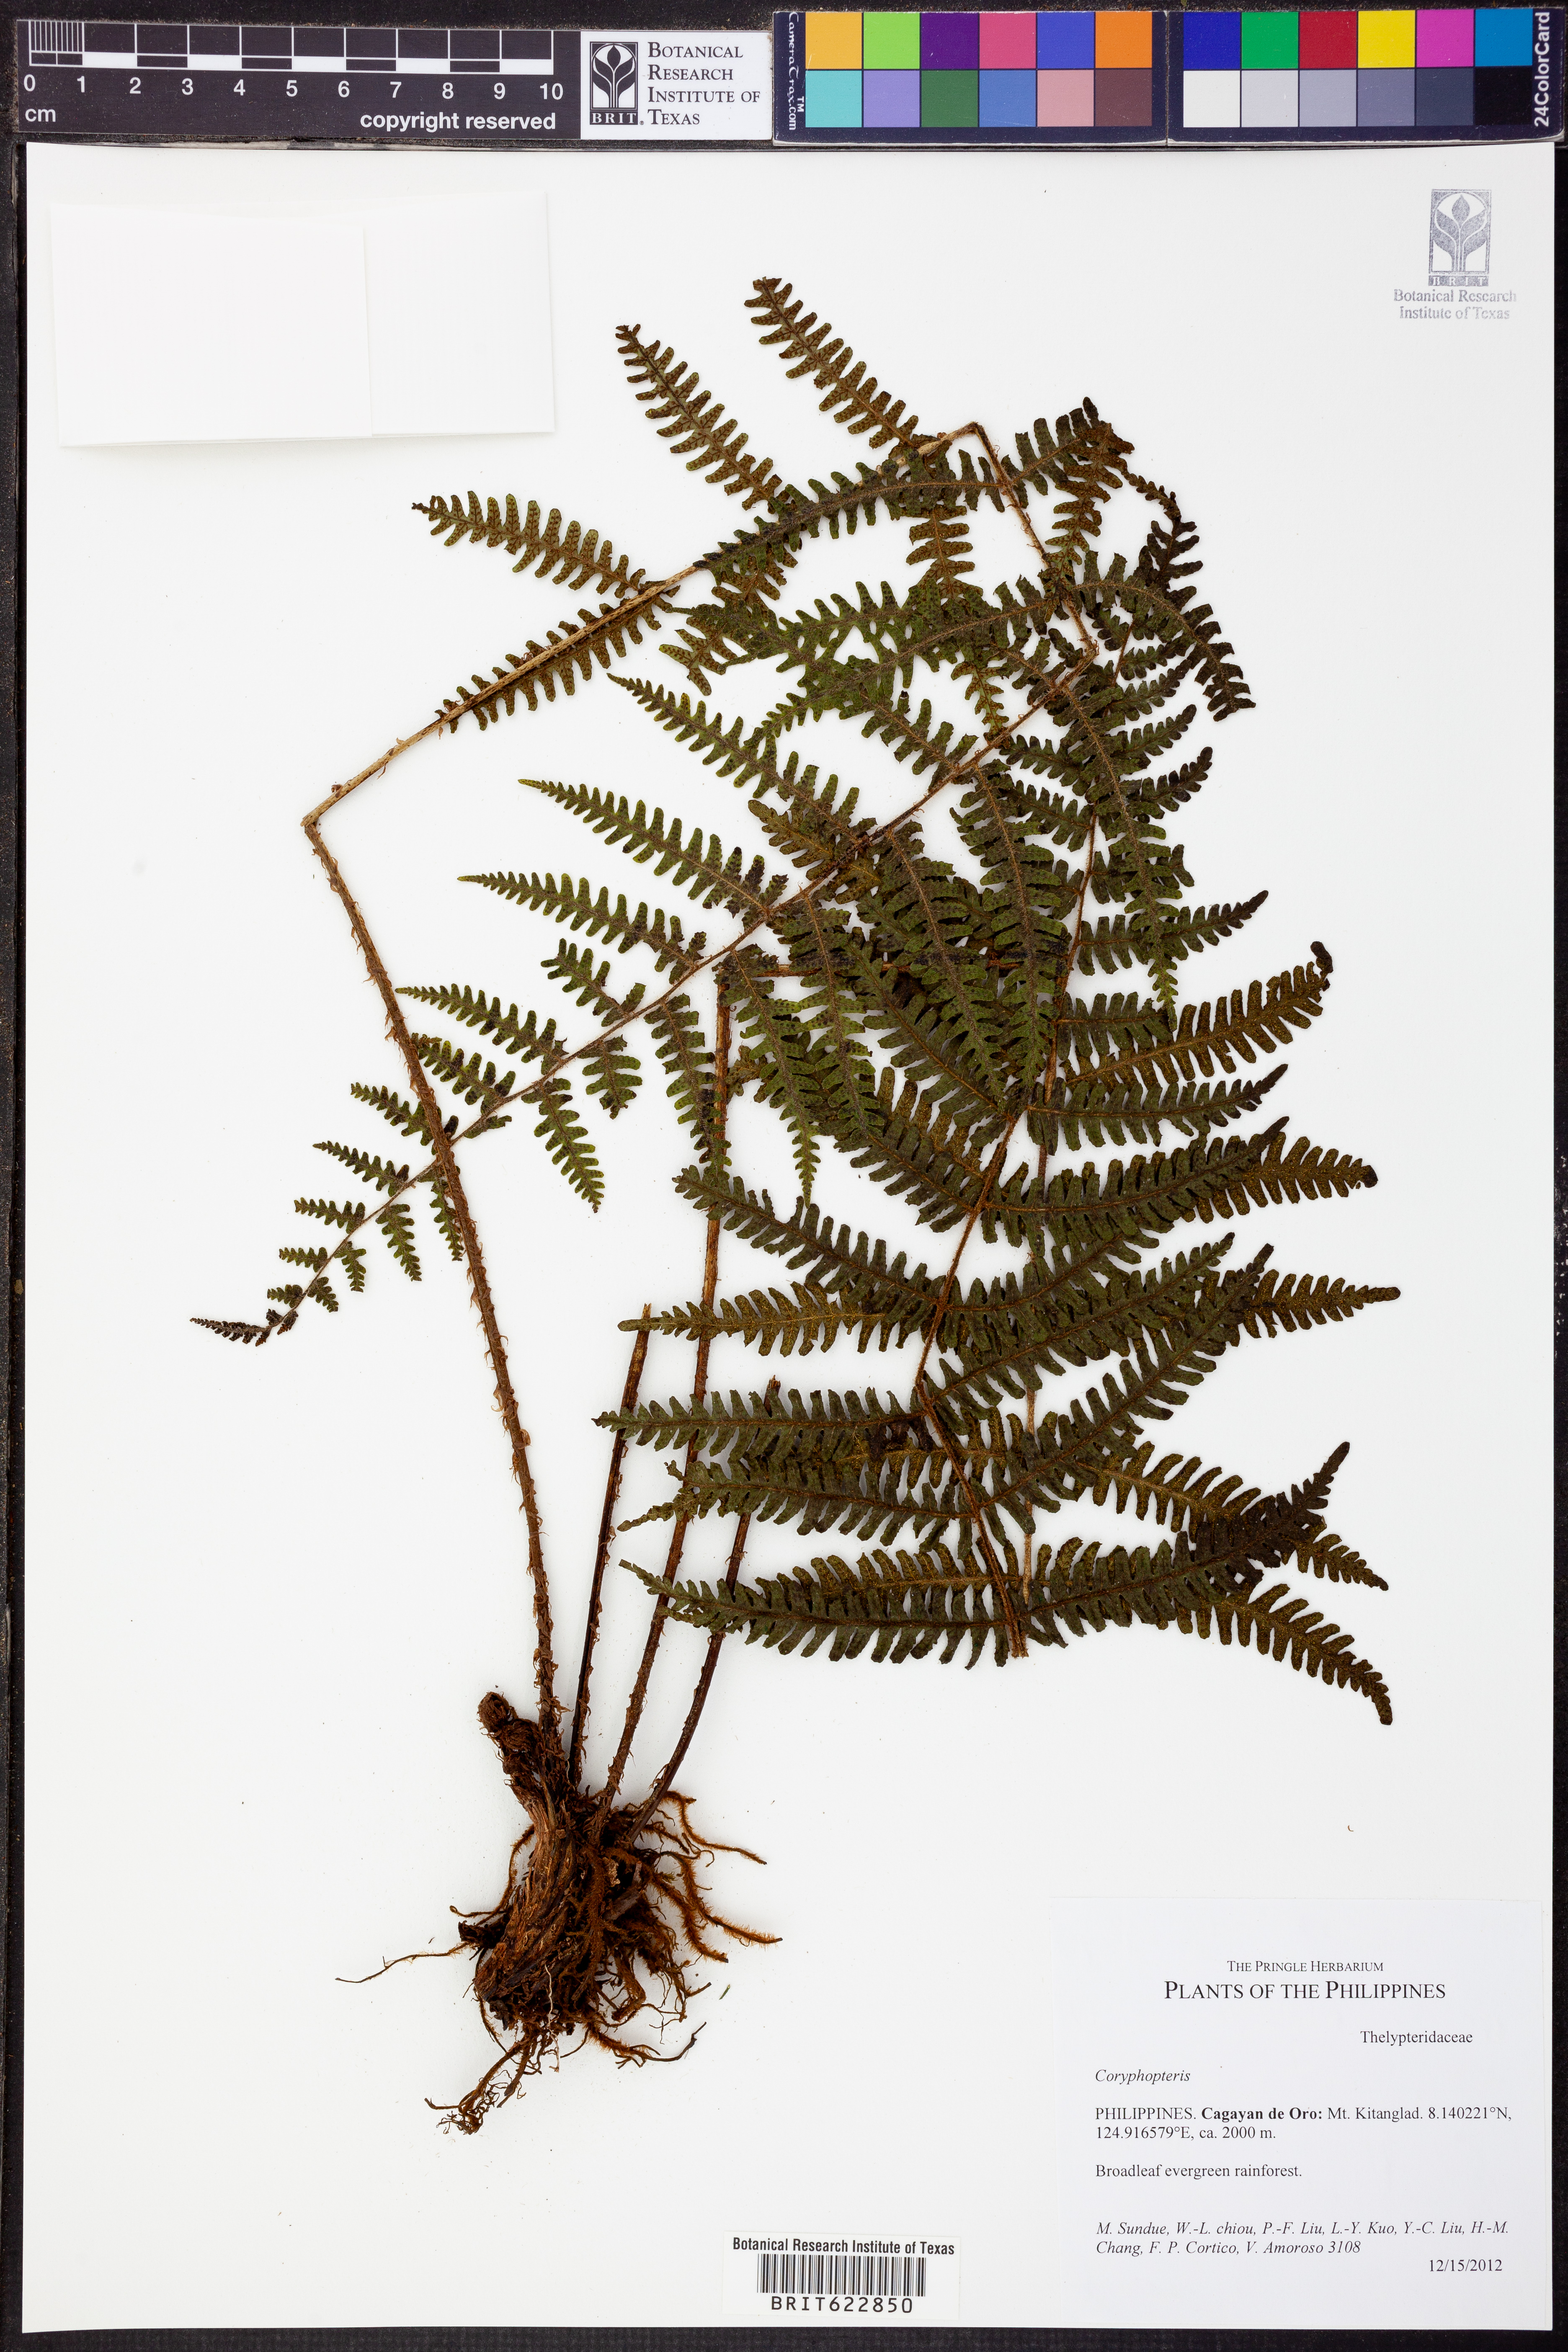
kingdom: Plantae
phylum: Tracheophyta
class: Polypodiopsida
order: Polypodiales
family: Thelypteridaceae
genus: Coryphopteris
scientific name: Coryphopteris
